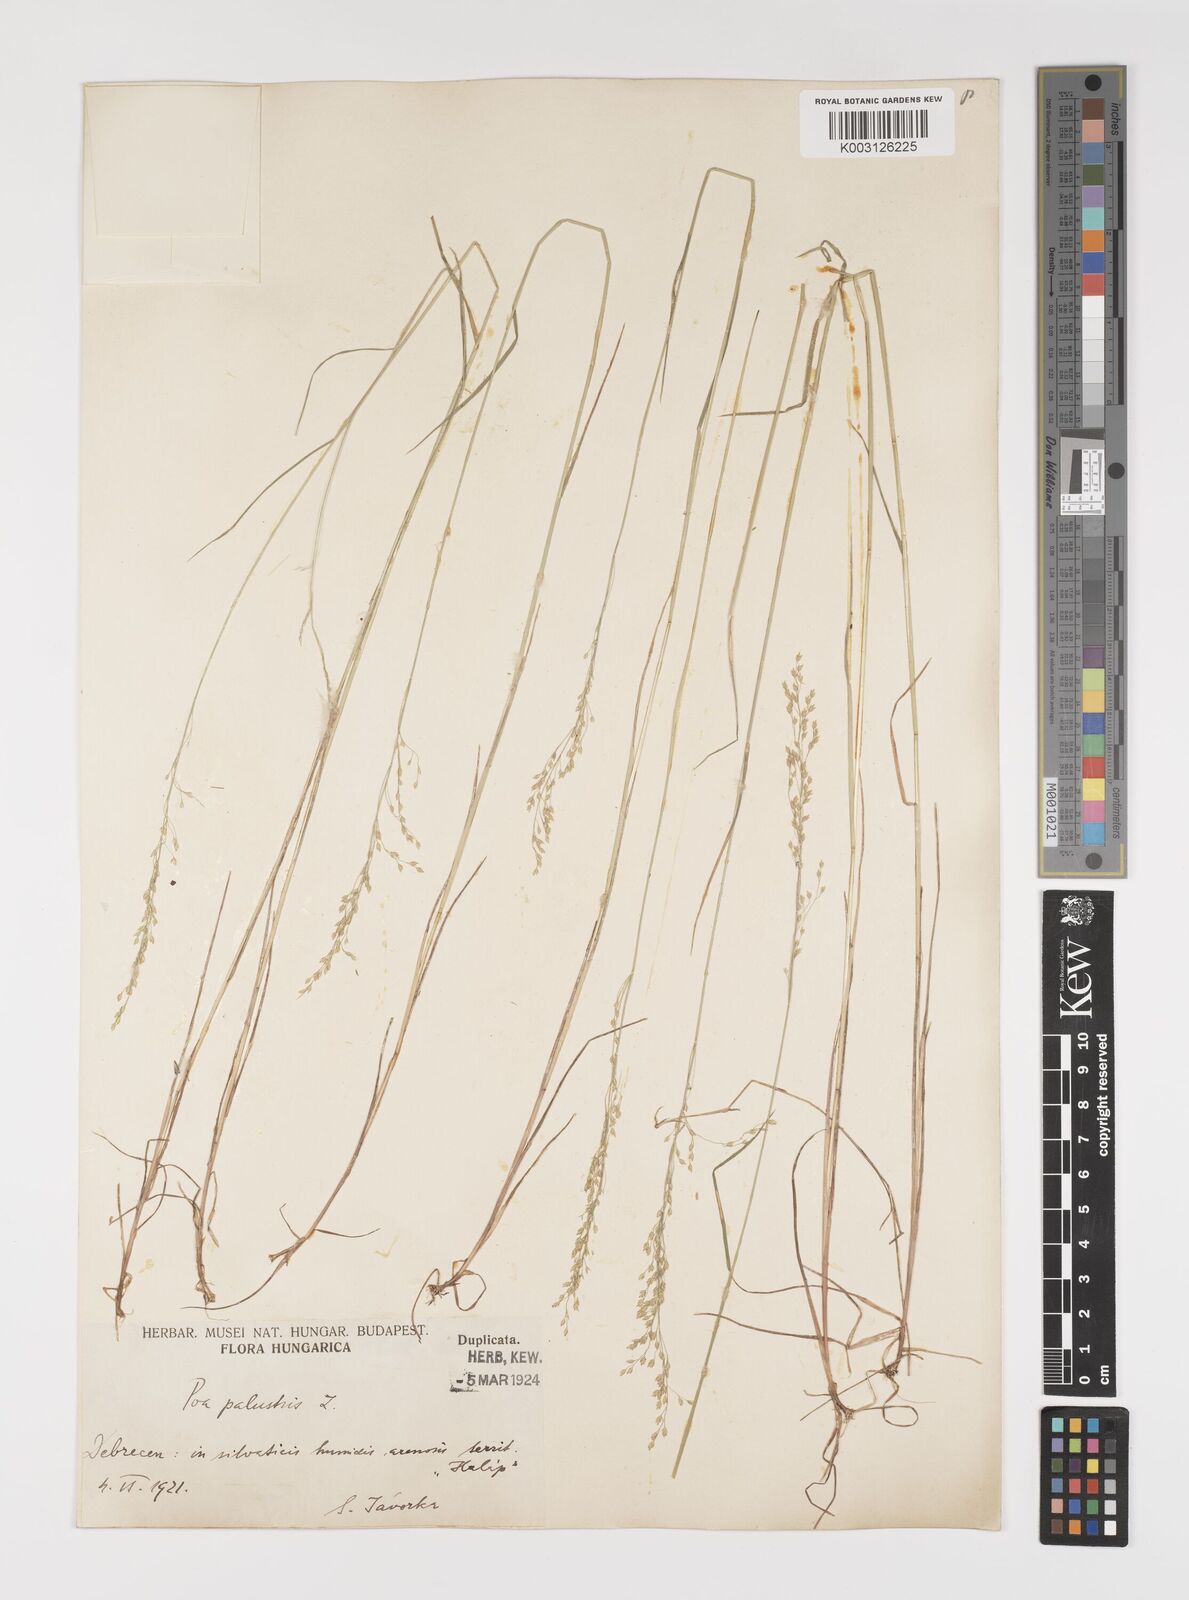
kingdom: Plantae
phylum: Tracheophyta
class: Liliopsida
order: Poales
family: Poaceae
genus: Poa
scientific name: Poa palustris
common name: Swamp meadow-grass
